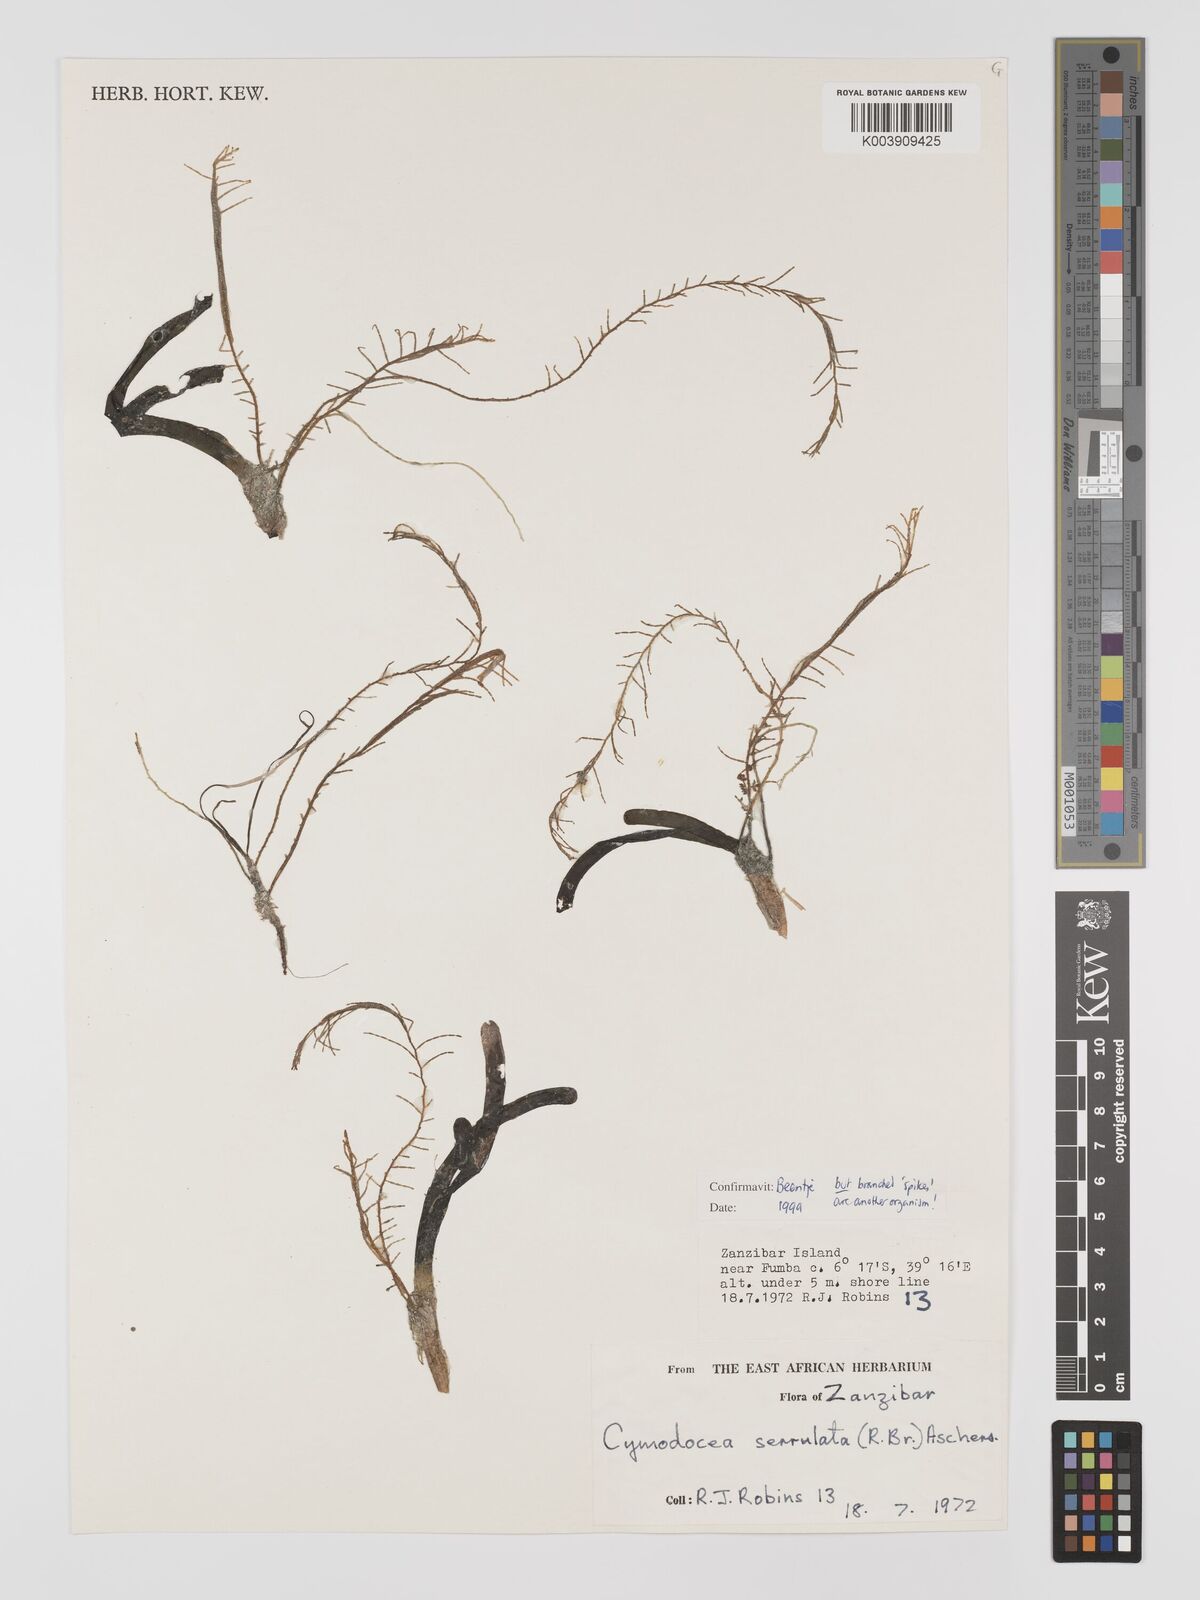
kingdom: Plantae
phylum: Tracheophyta
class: Liliopsida
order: Alismatales
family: Cymodoceaceae
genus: Oceana
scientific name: Oceana serrulata
